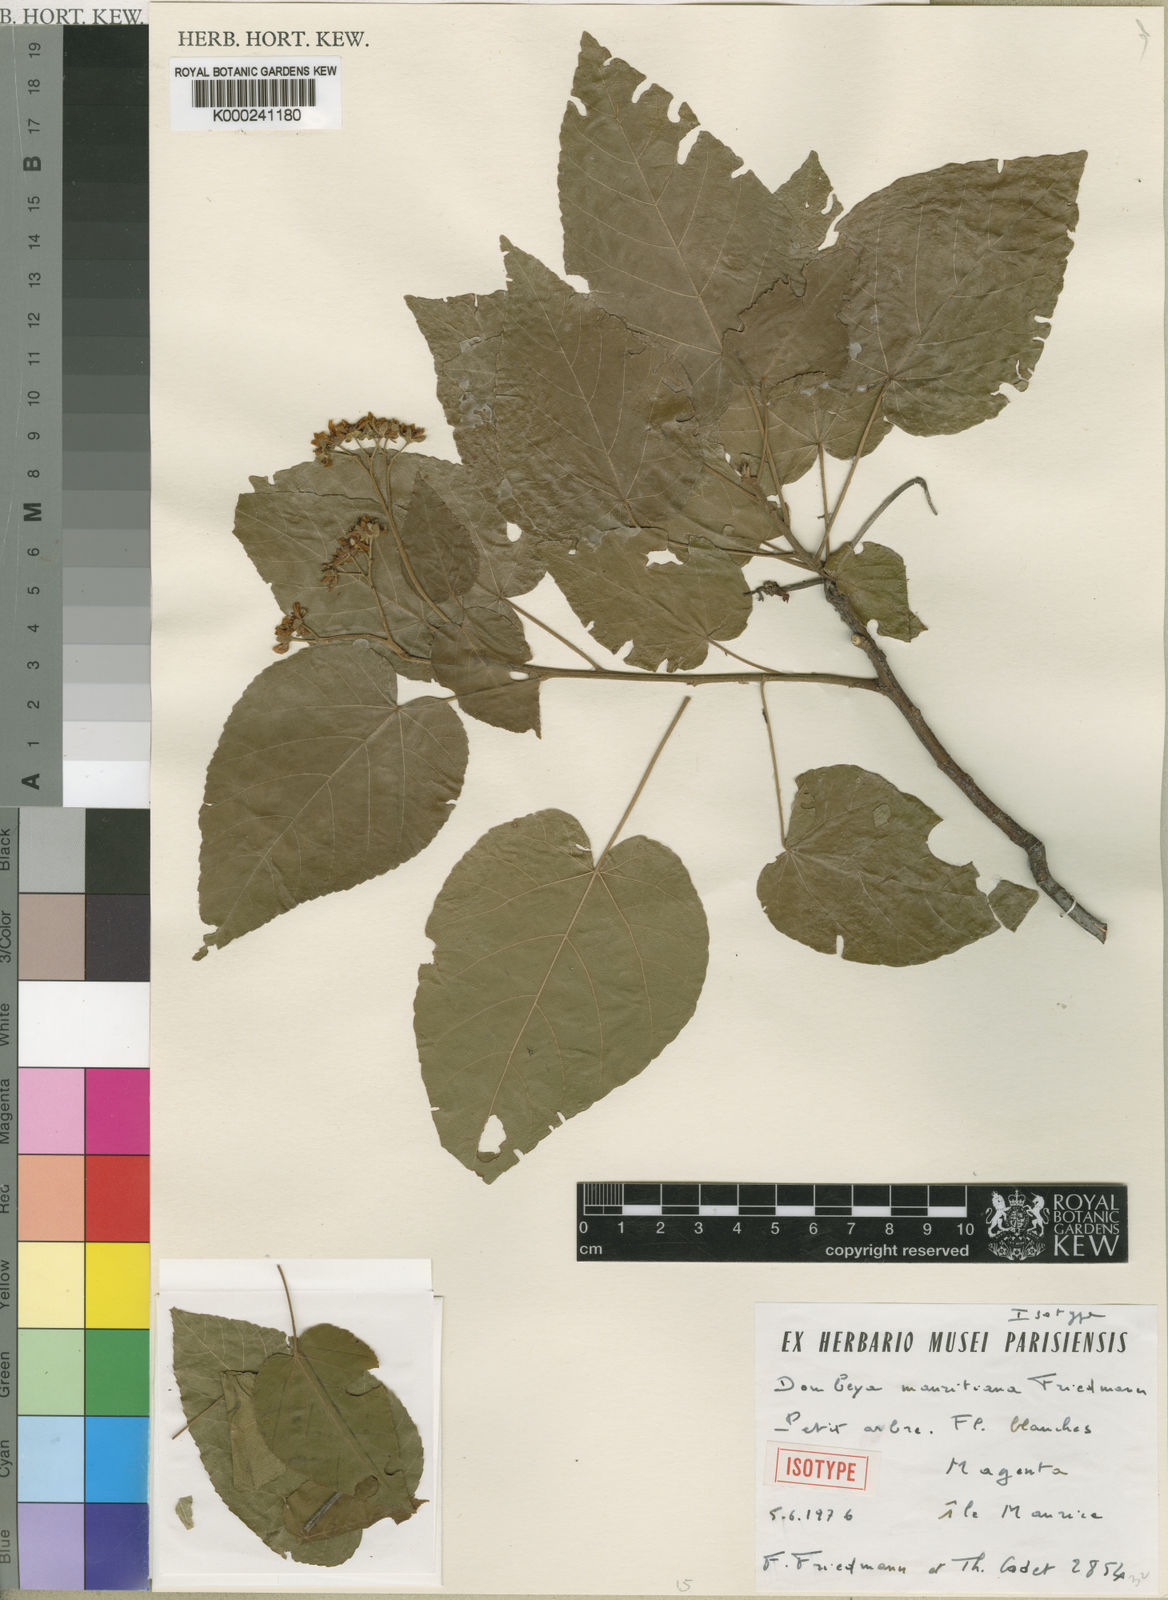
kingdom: Plantae
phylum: Tracheophyta
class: Magnoliopsida
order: Malvales
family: Malvaceae
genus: Ruizia
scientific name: Ruizia mauritiana
